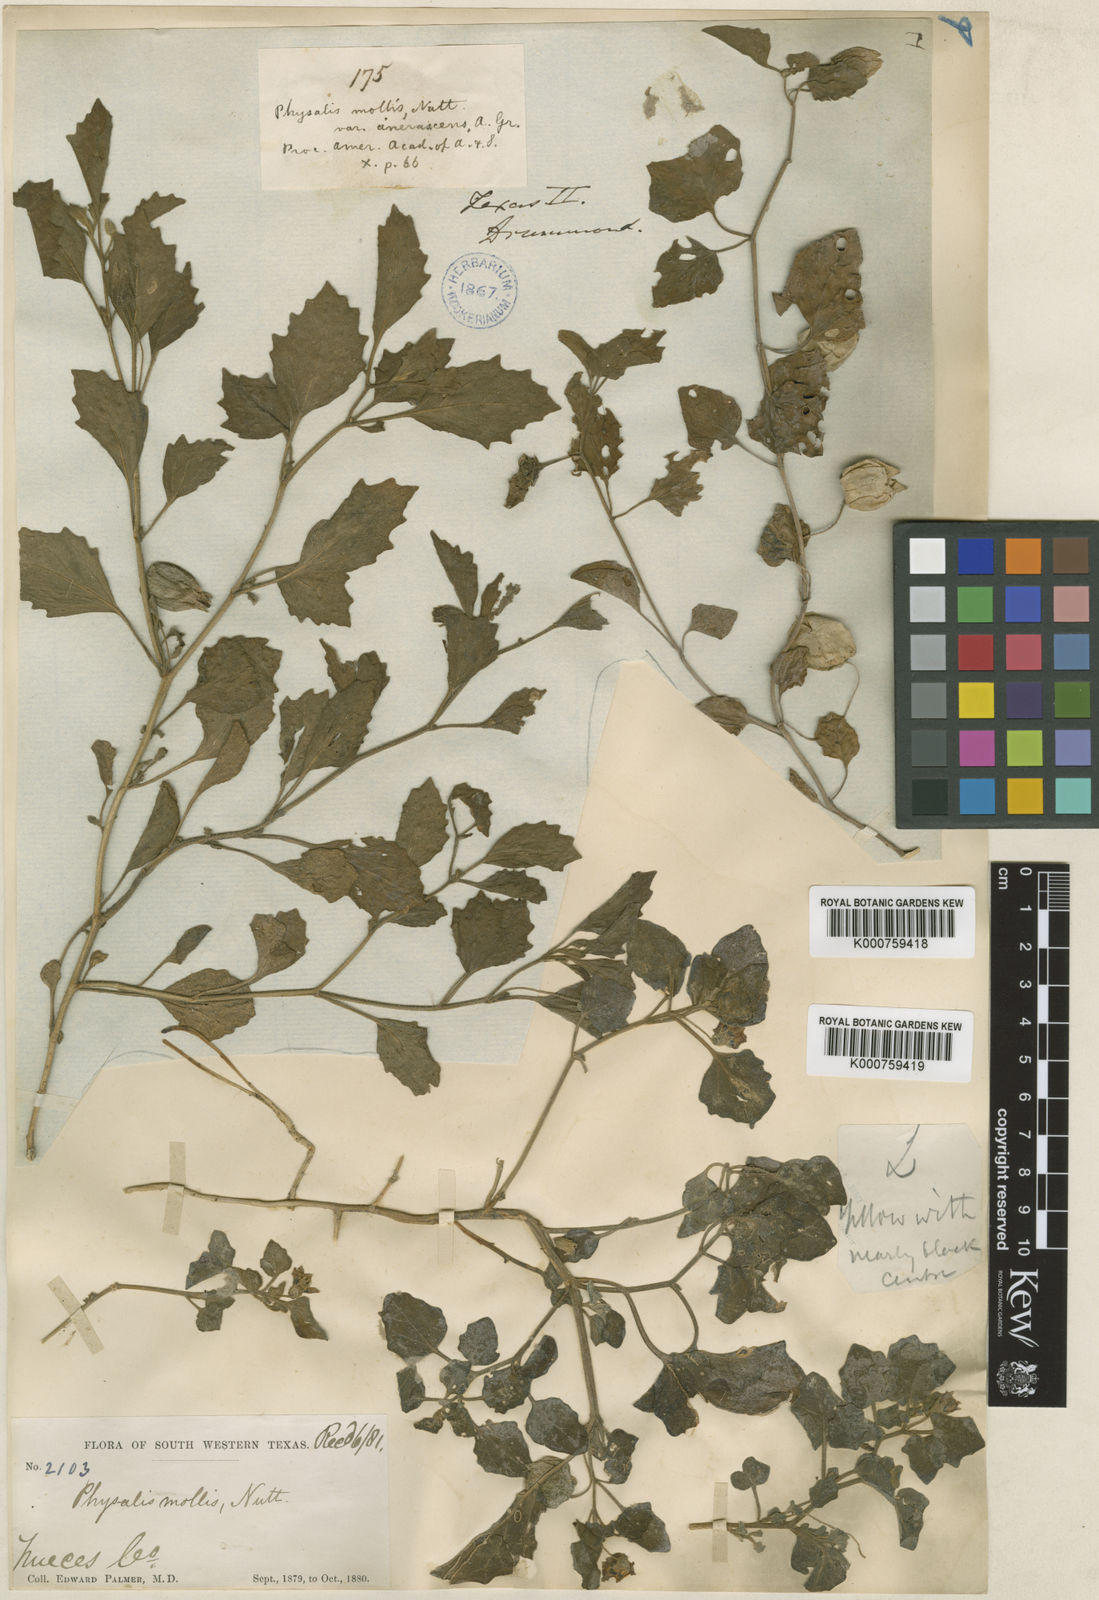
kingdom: Plantae
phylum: Tracheophyta
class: Magnoliopsida
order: Solanales
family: Solanaceae
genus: Physalis
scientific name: Physalis cinerascens
